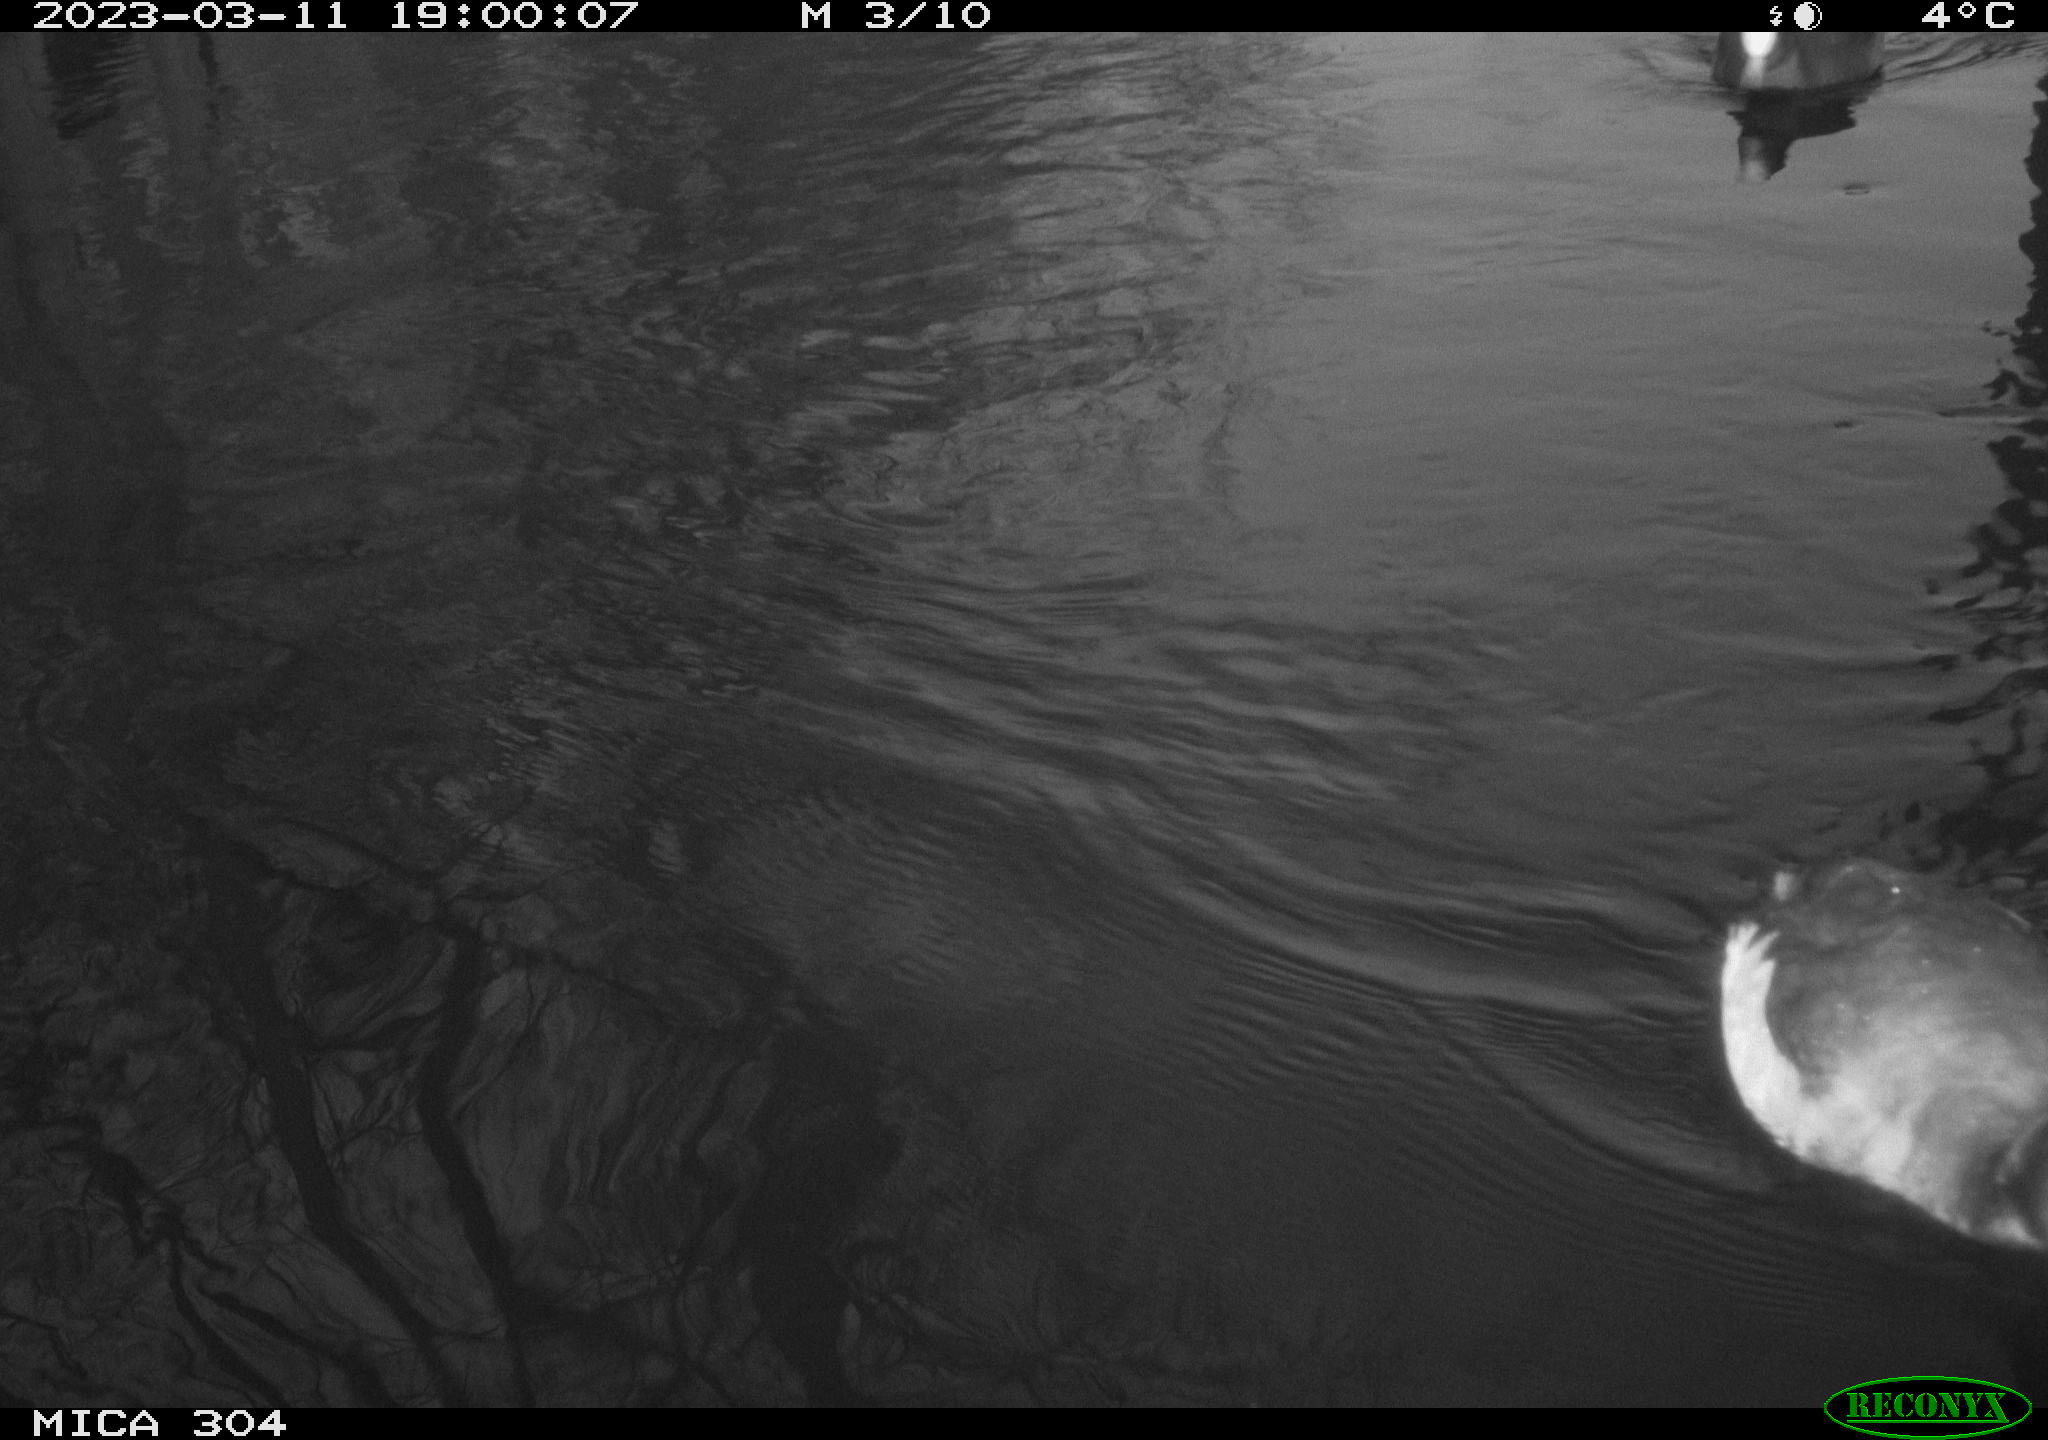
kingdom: Animalia
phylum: Chordata
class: Aves
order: Anseriformes
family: Anatidae
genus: Anas
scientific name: Anas
